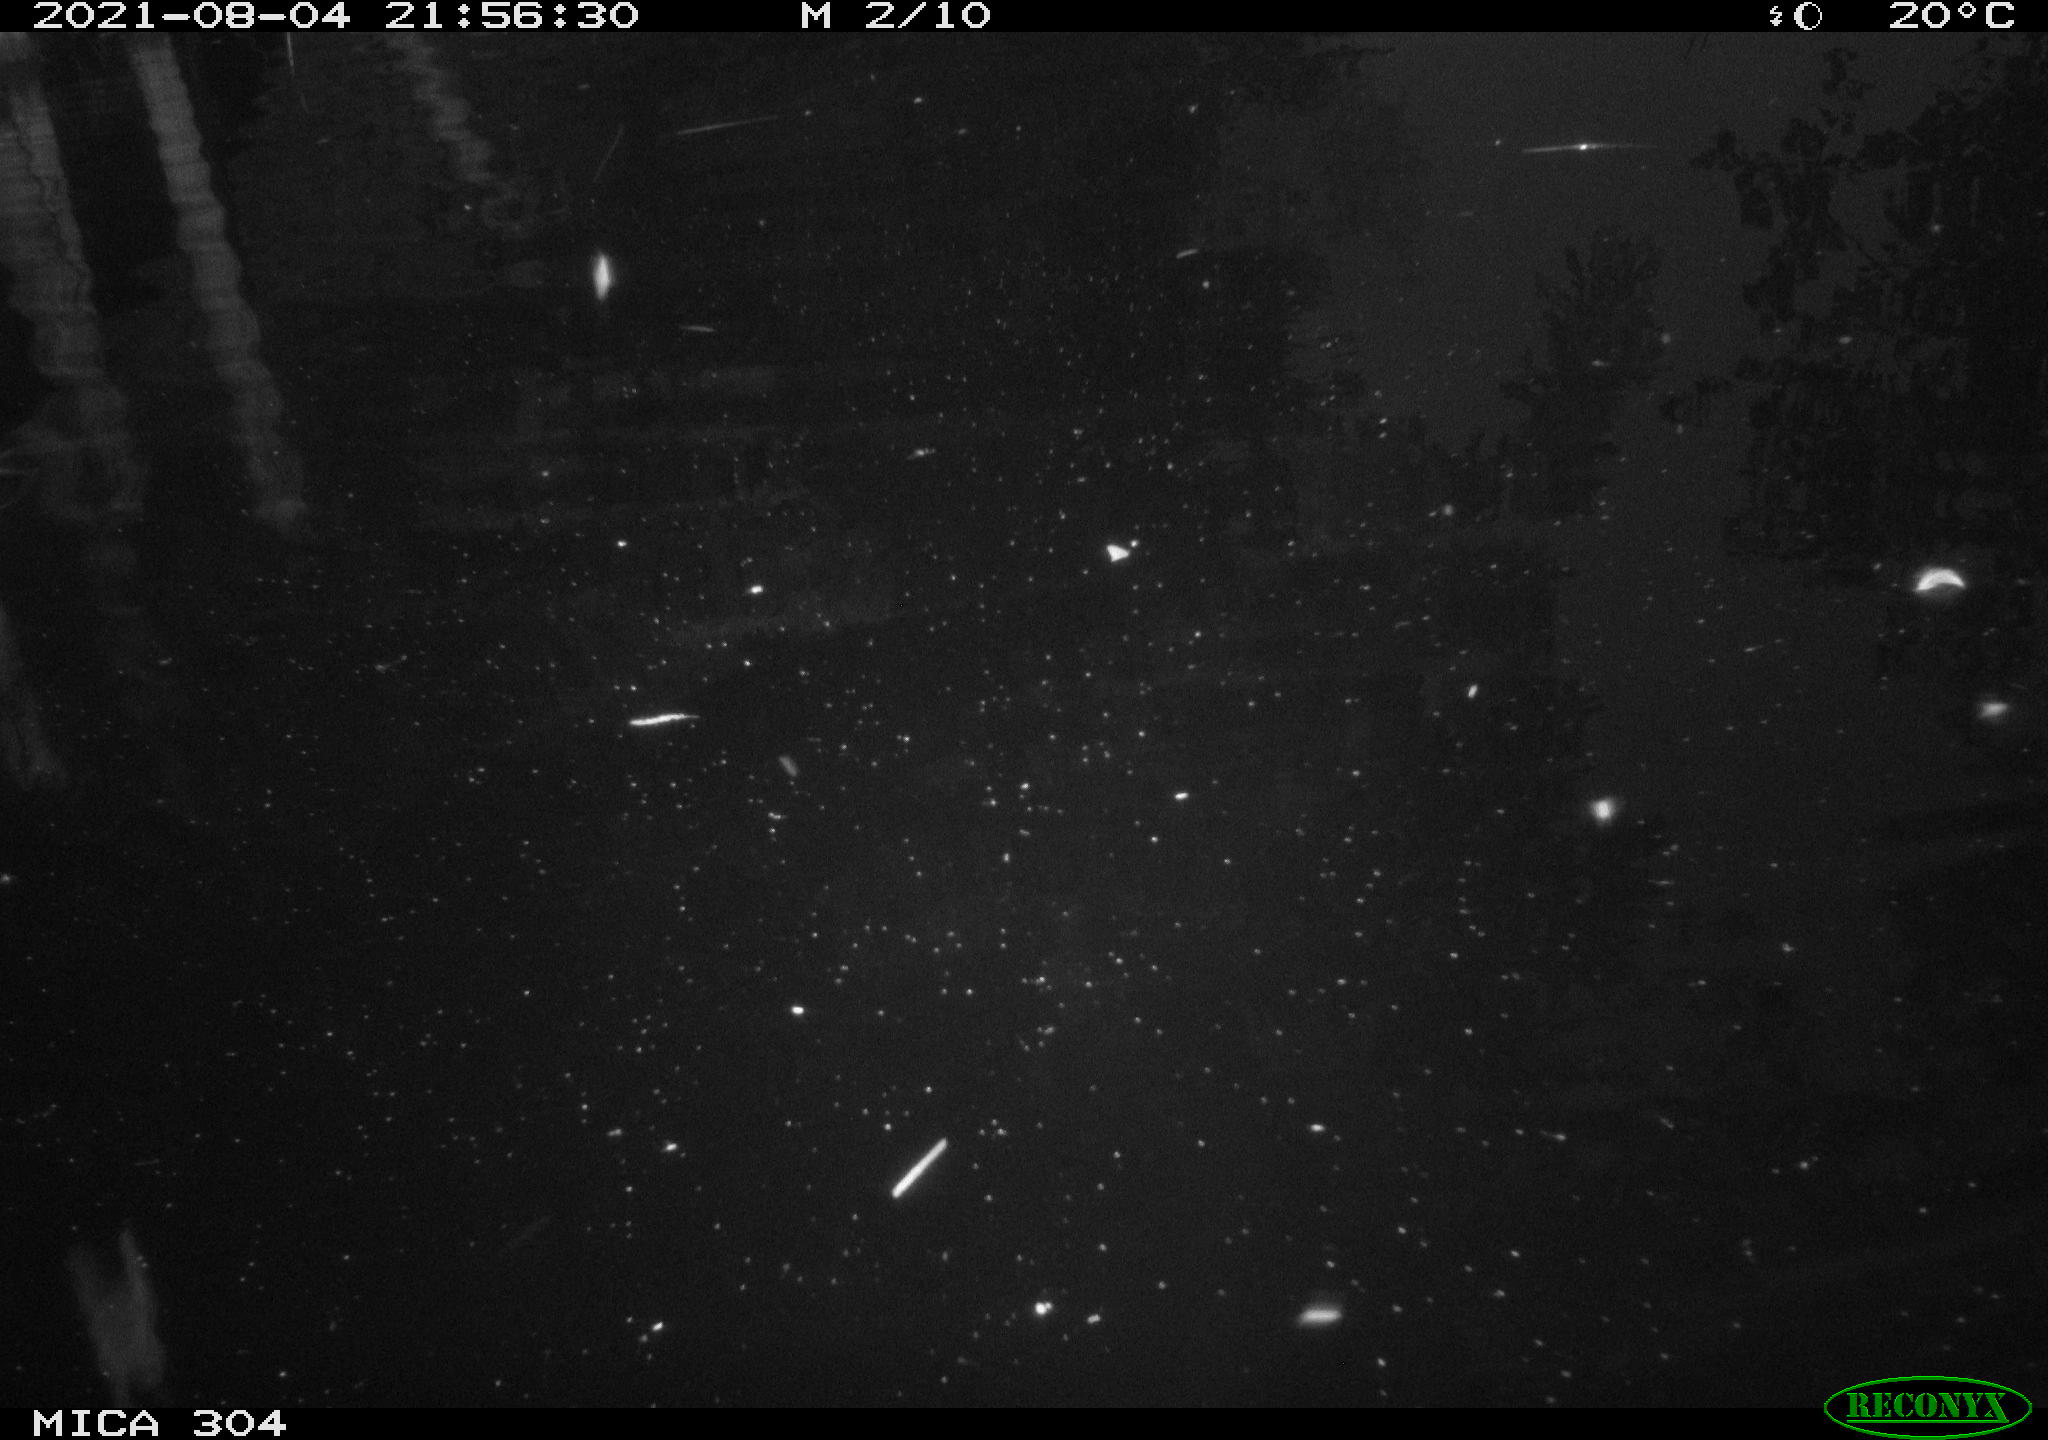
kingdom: Animalia
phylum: Chordata
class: Aves
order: Anseriformes
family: Anatidae
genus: Anas
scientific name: Anas platyrhynchos
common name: Mallard
